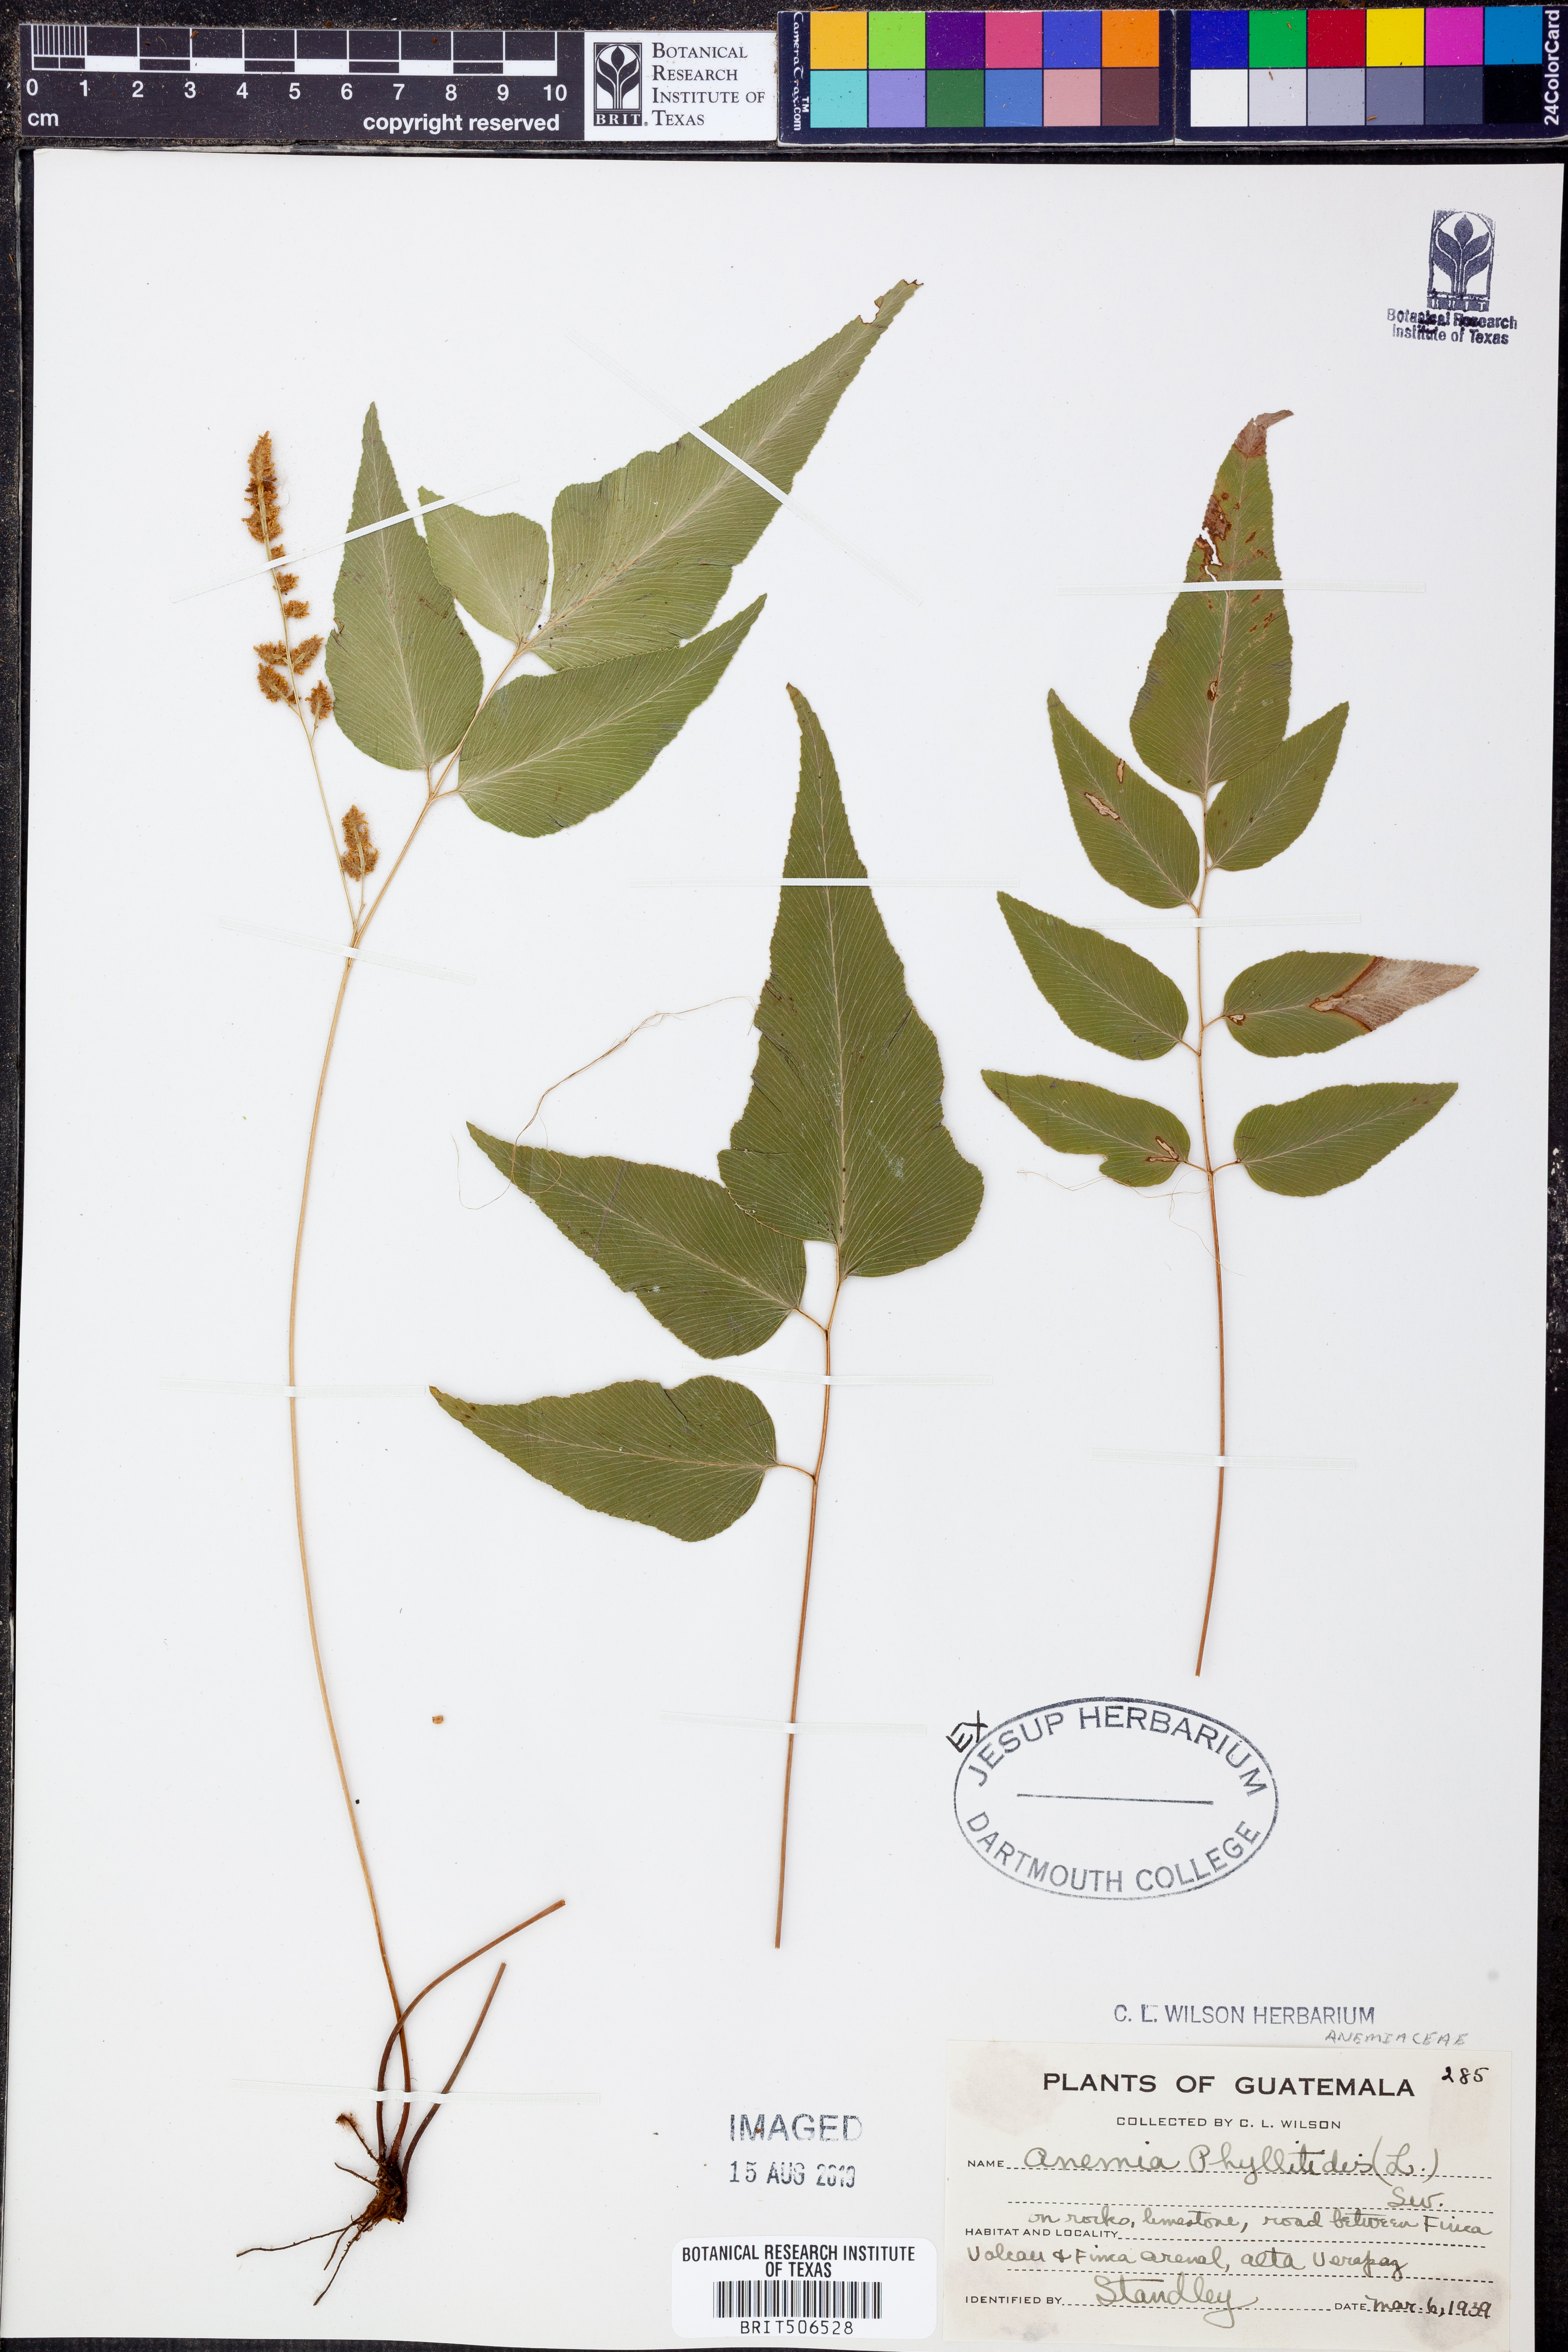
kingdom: Plantae
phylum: Tracheophyta
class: Polypodiopsida
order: Schizaeales
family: Anemiaceae
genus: Anemia
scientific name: Anemia phyllitidis
